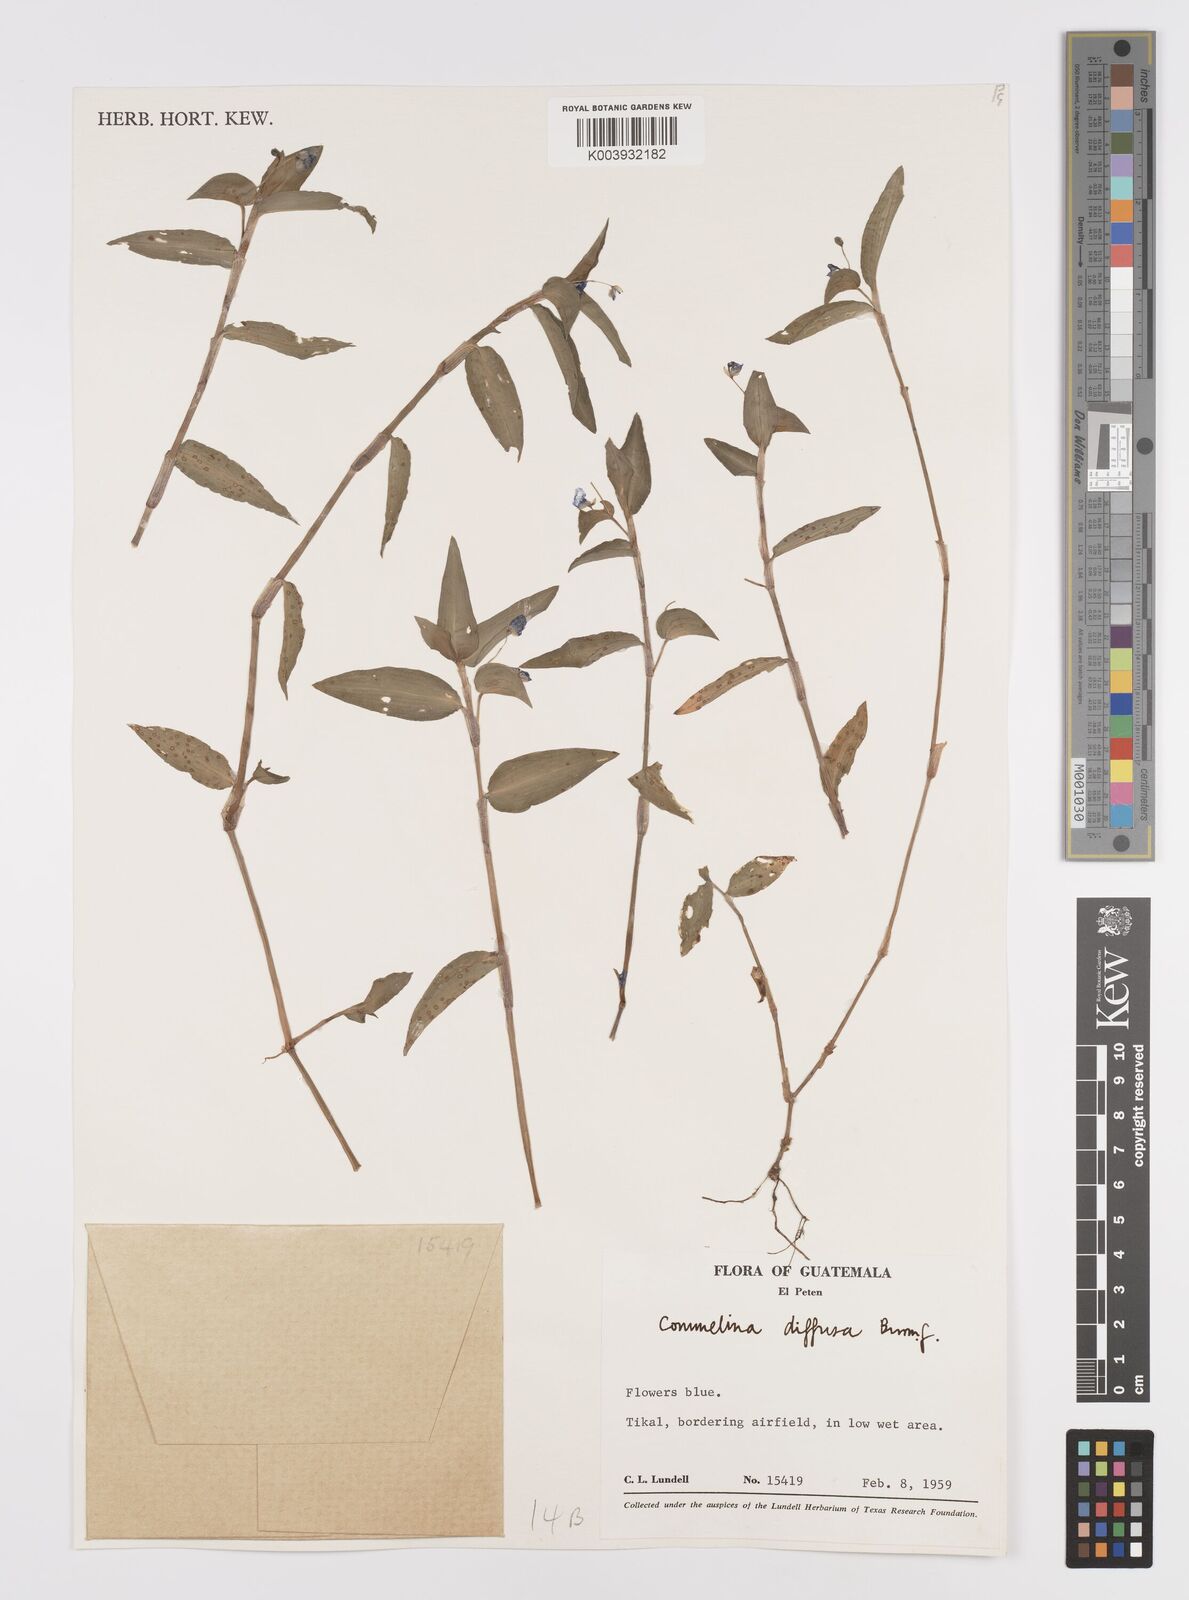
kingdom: Plantae
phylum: Tracheophyta
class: Liliopsida
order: Commelinales
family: Commelinaceae
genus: Commelina
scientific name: Commelina diffusa
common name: Climbing dayflower
